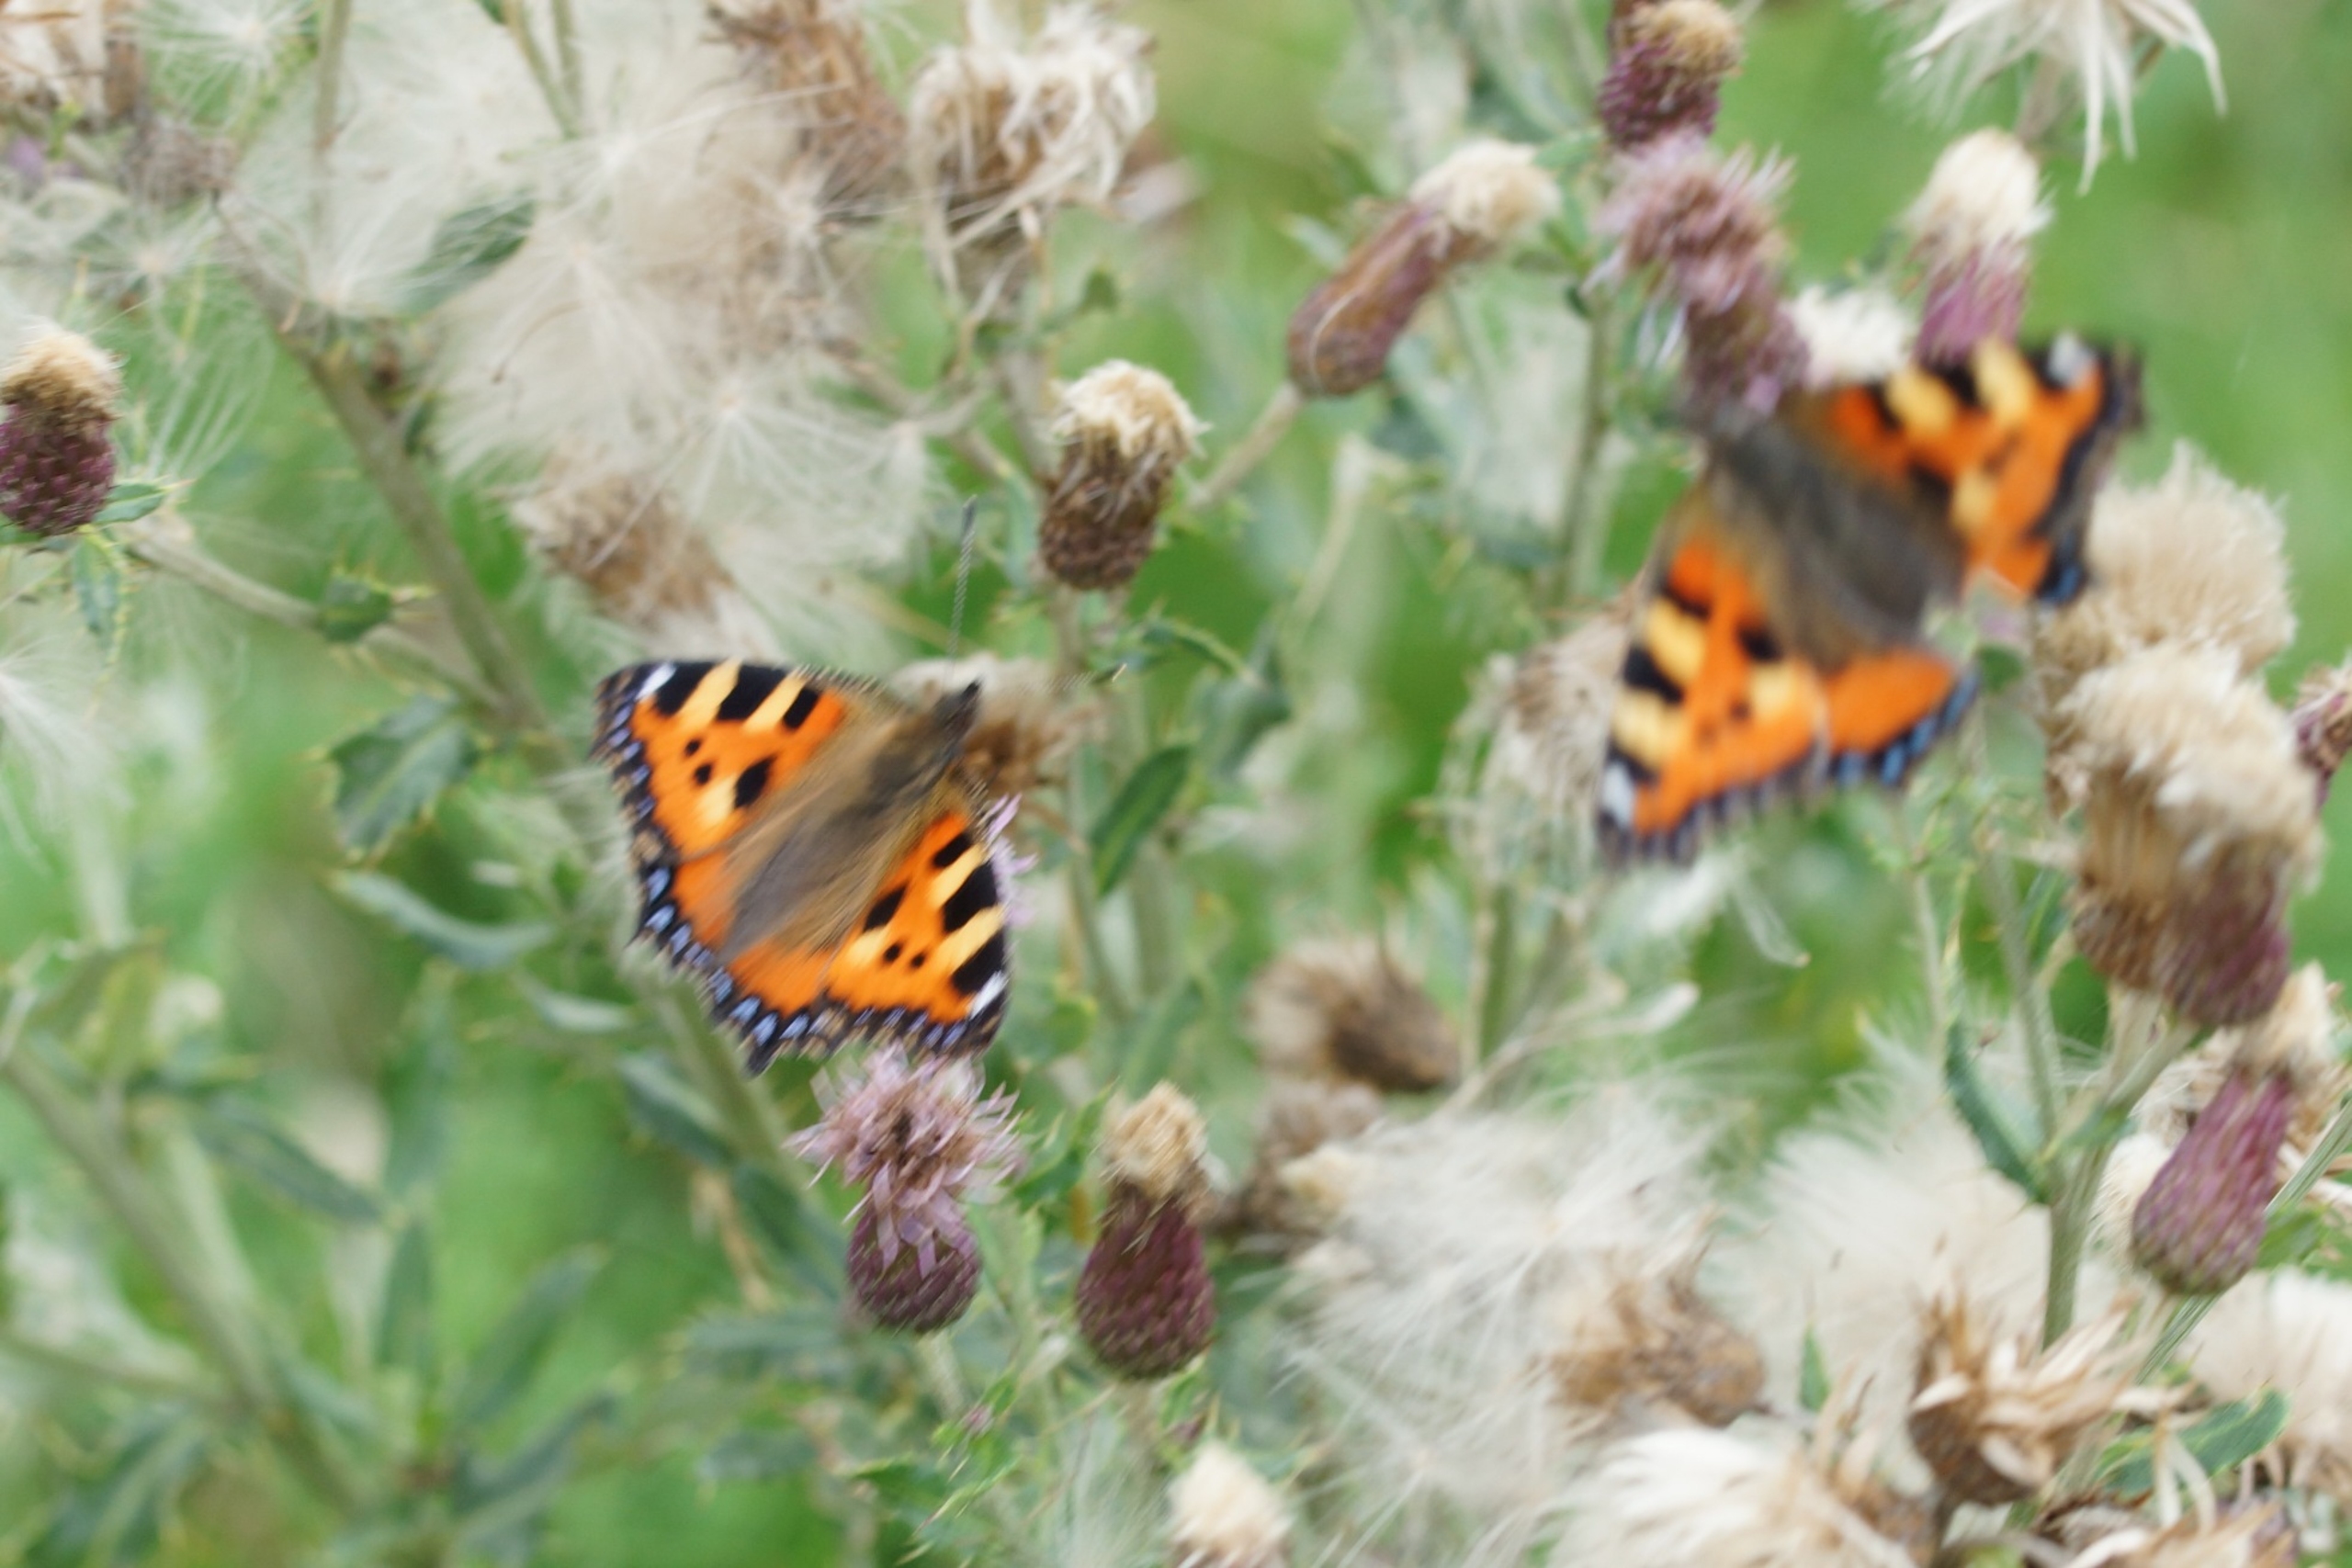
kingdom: Animalia
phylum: Arthropoda
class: Insecta
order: Lepidoptera
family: Nymphalidae
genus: Aglais
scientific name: Aglais urticae
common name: Nældens takvinge
